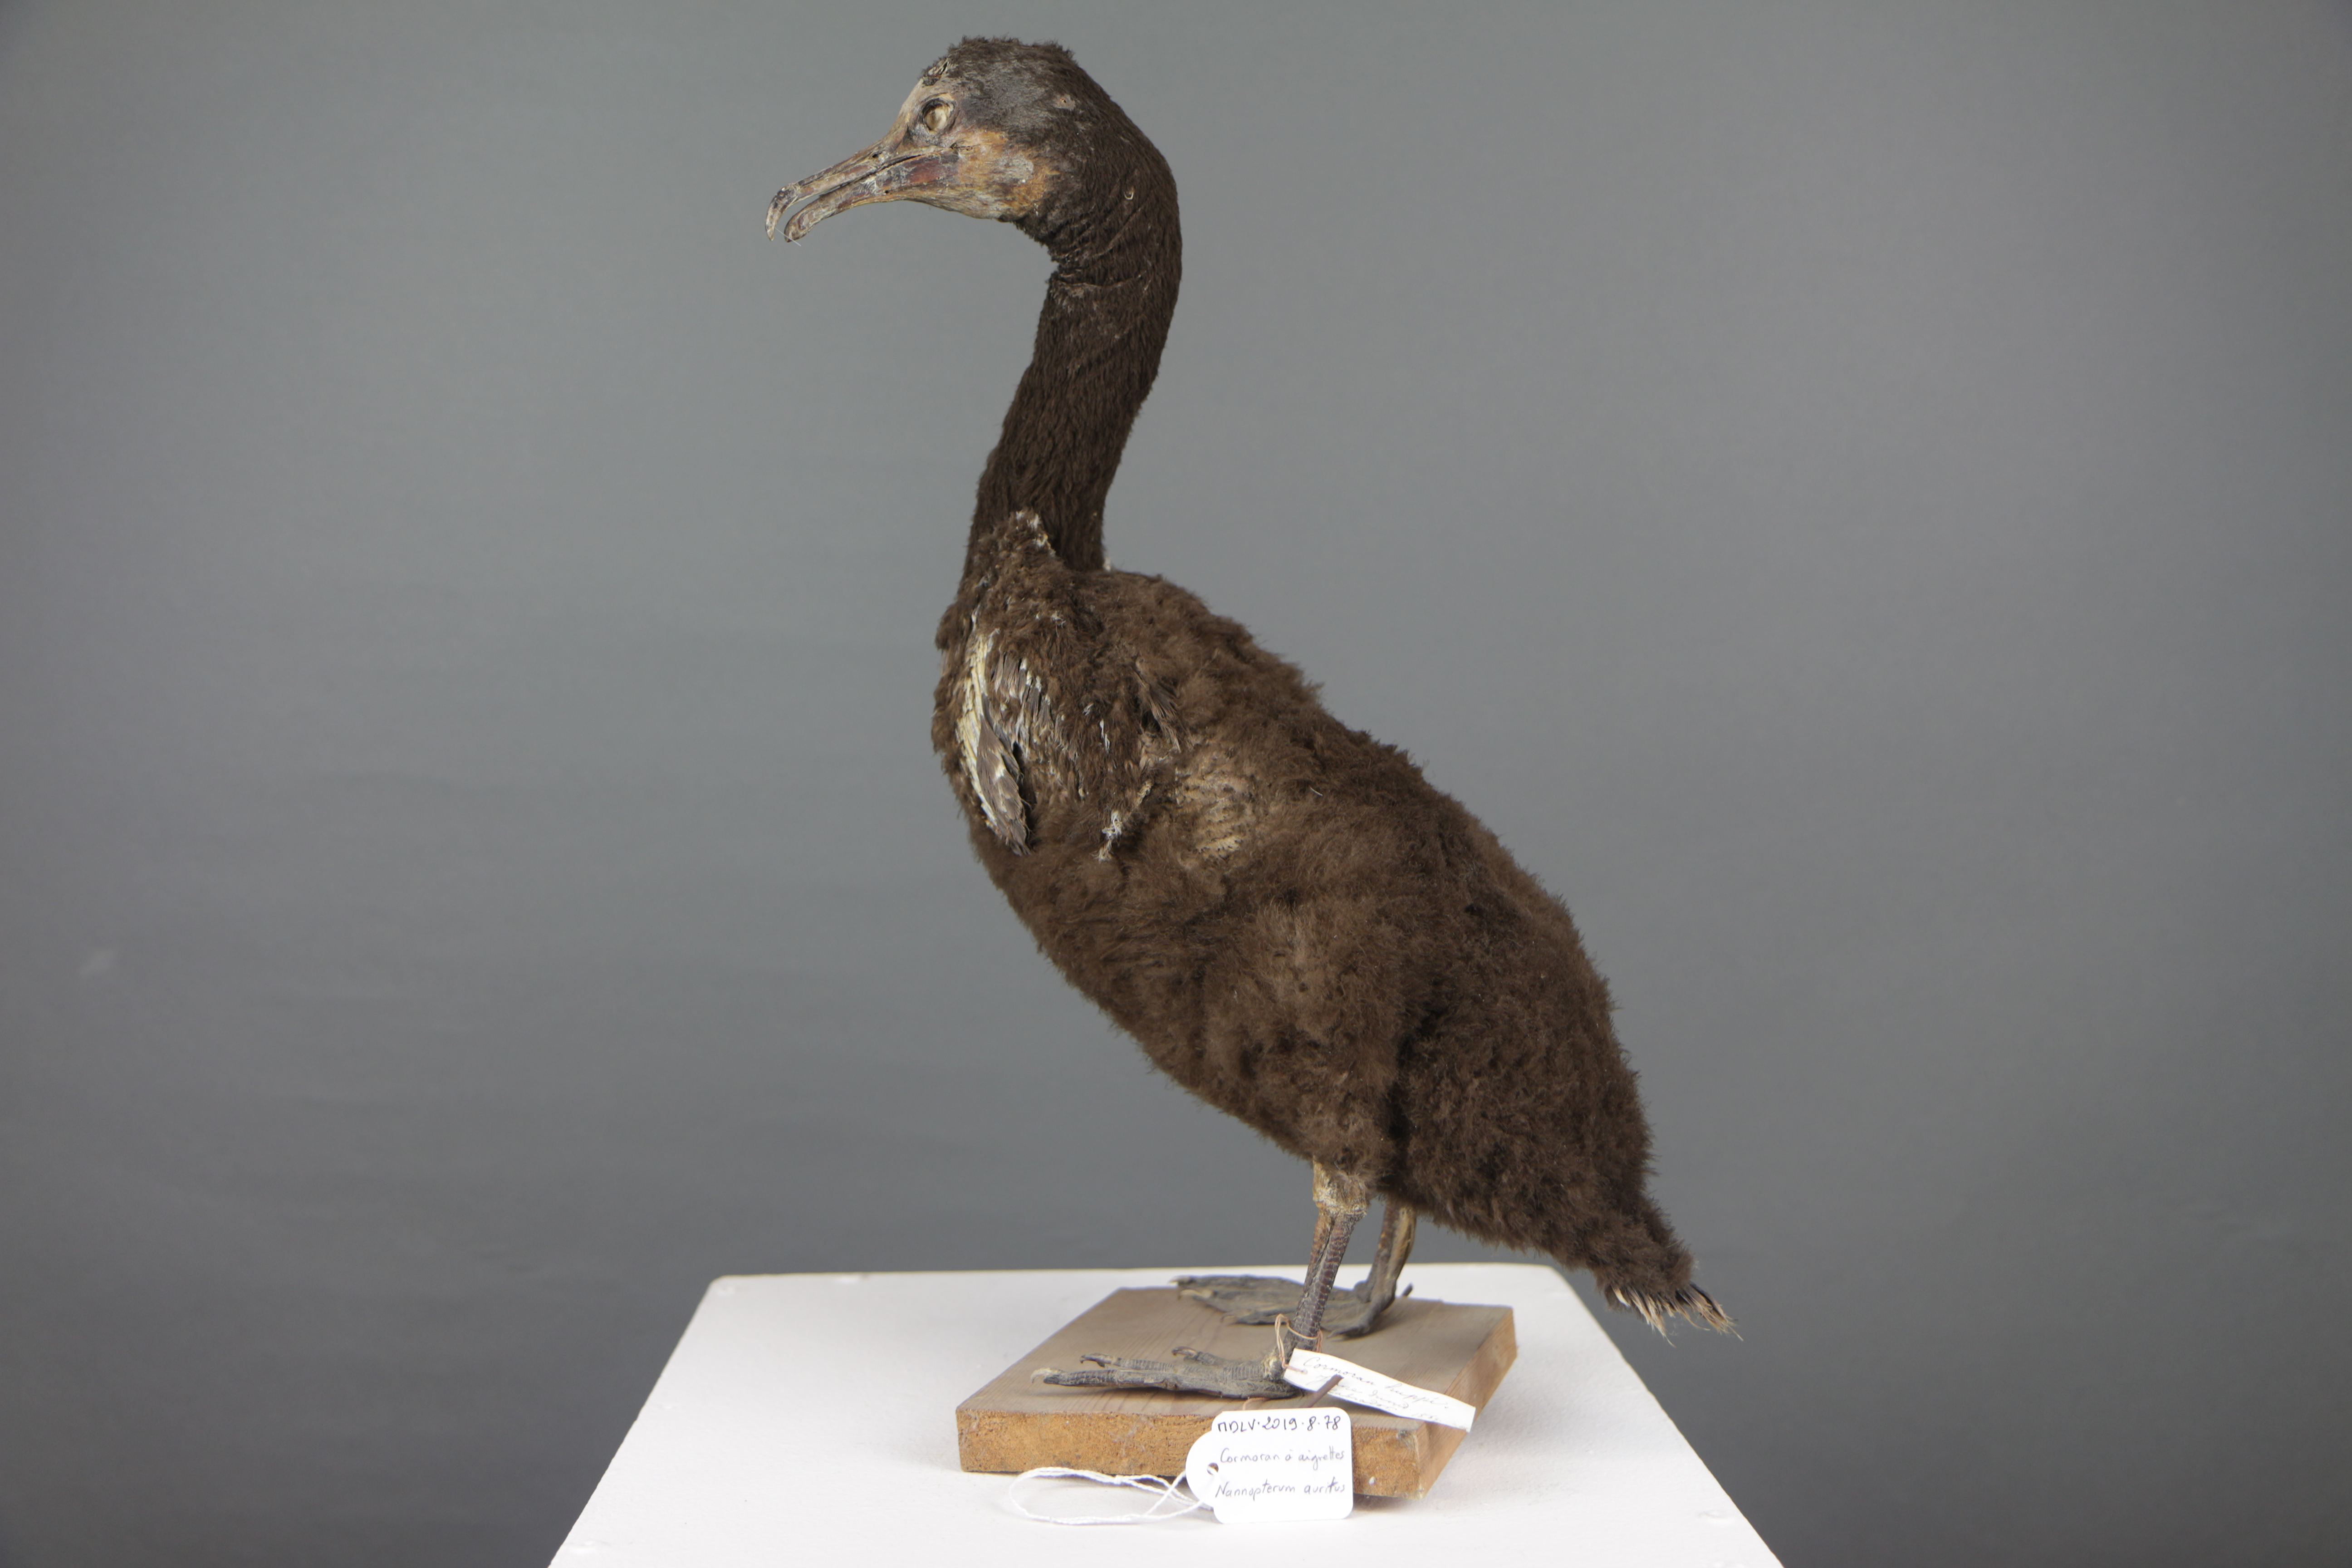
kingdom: Animalia
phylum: Chordata
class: Aves
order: Suliformes
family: Phalacrocoracidae
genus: Phalacrocorax
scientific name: Phalacrocorax auritus
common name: Double-crested cormorant
